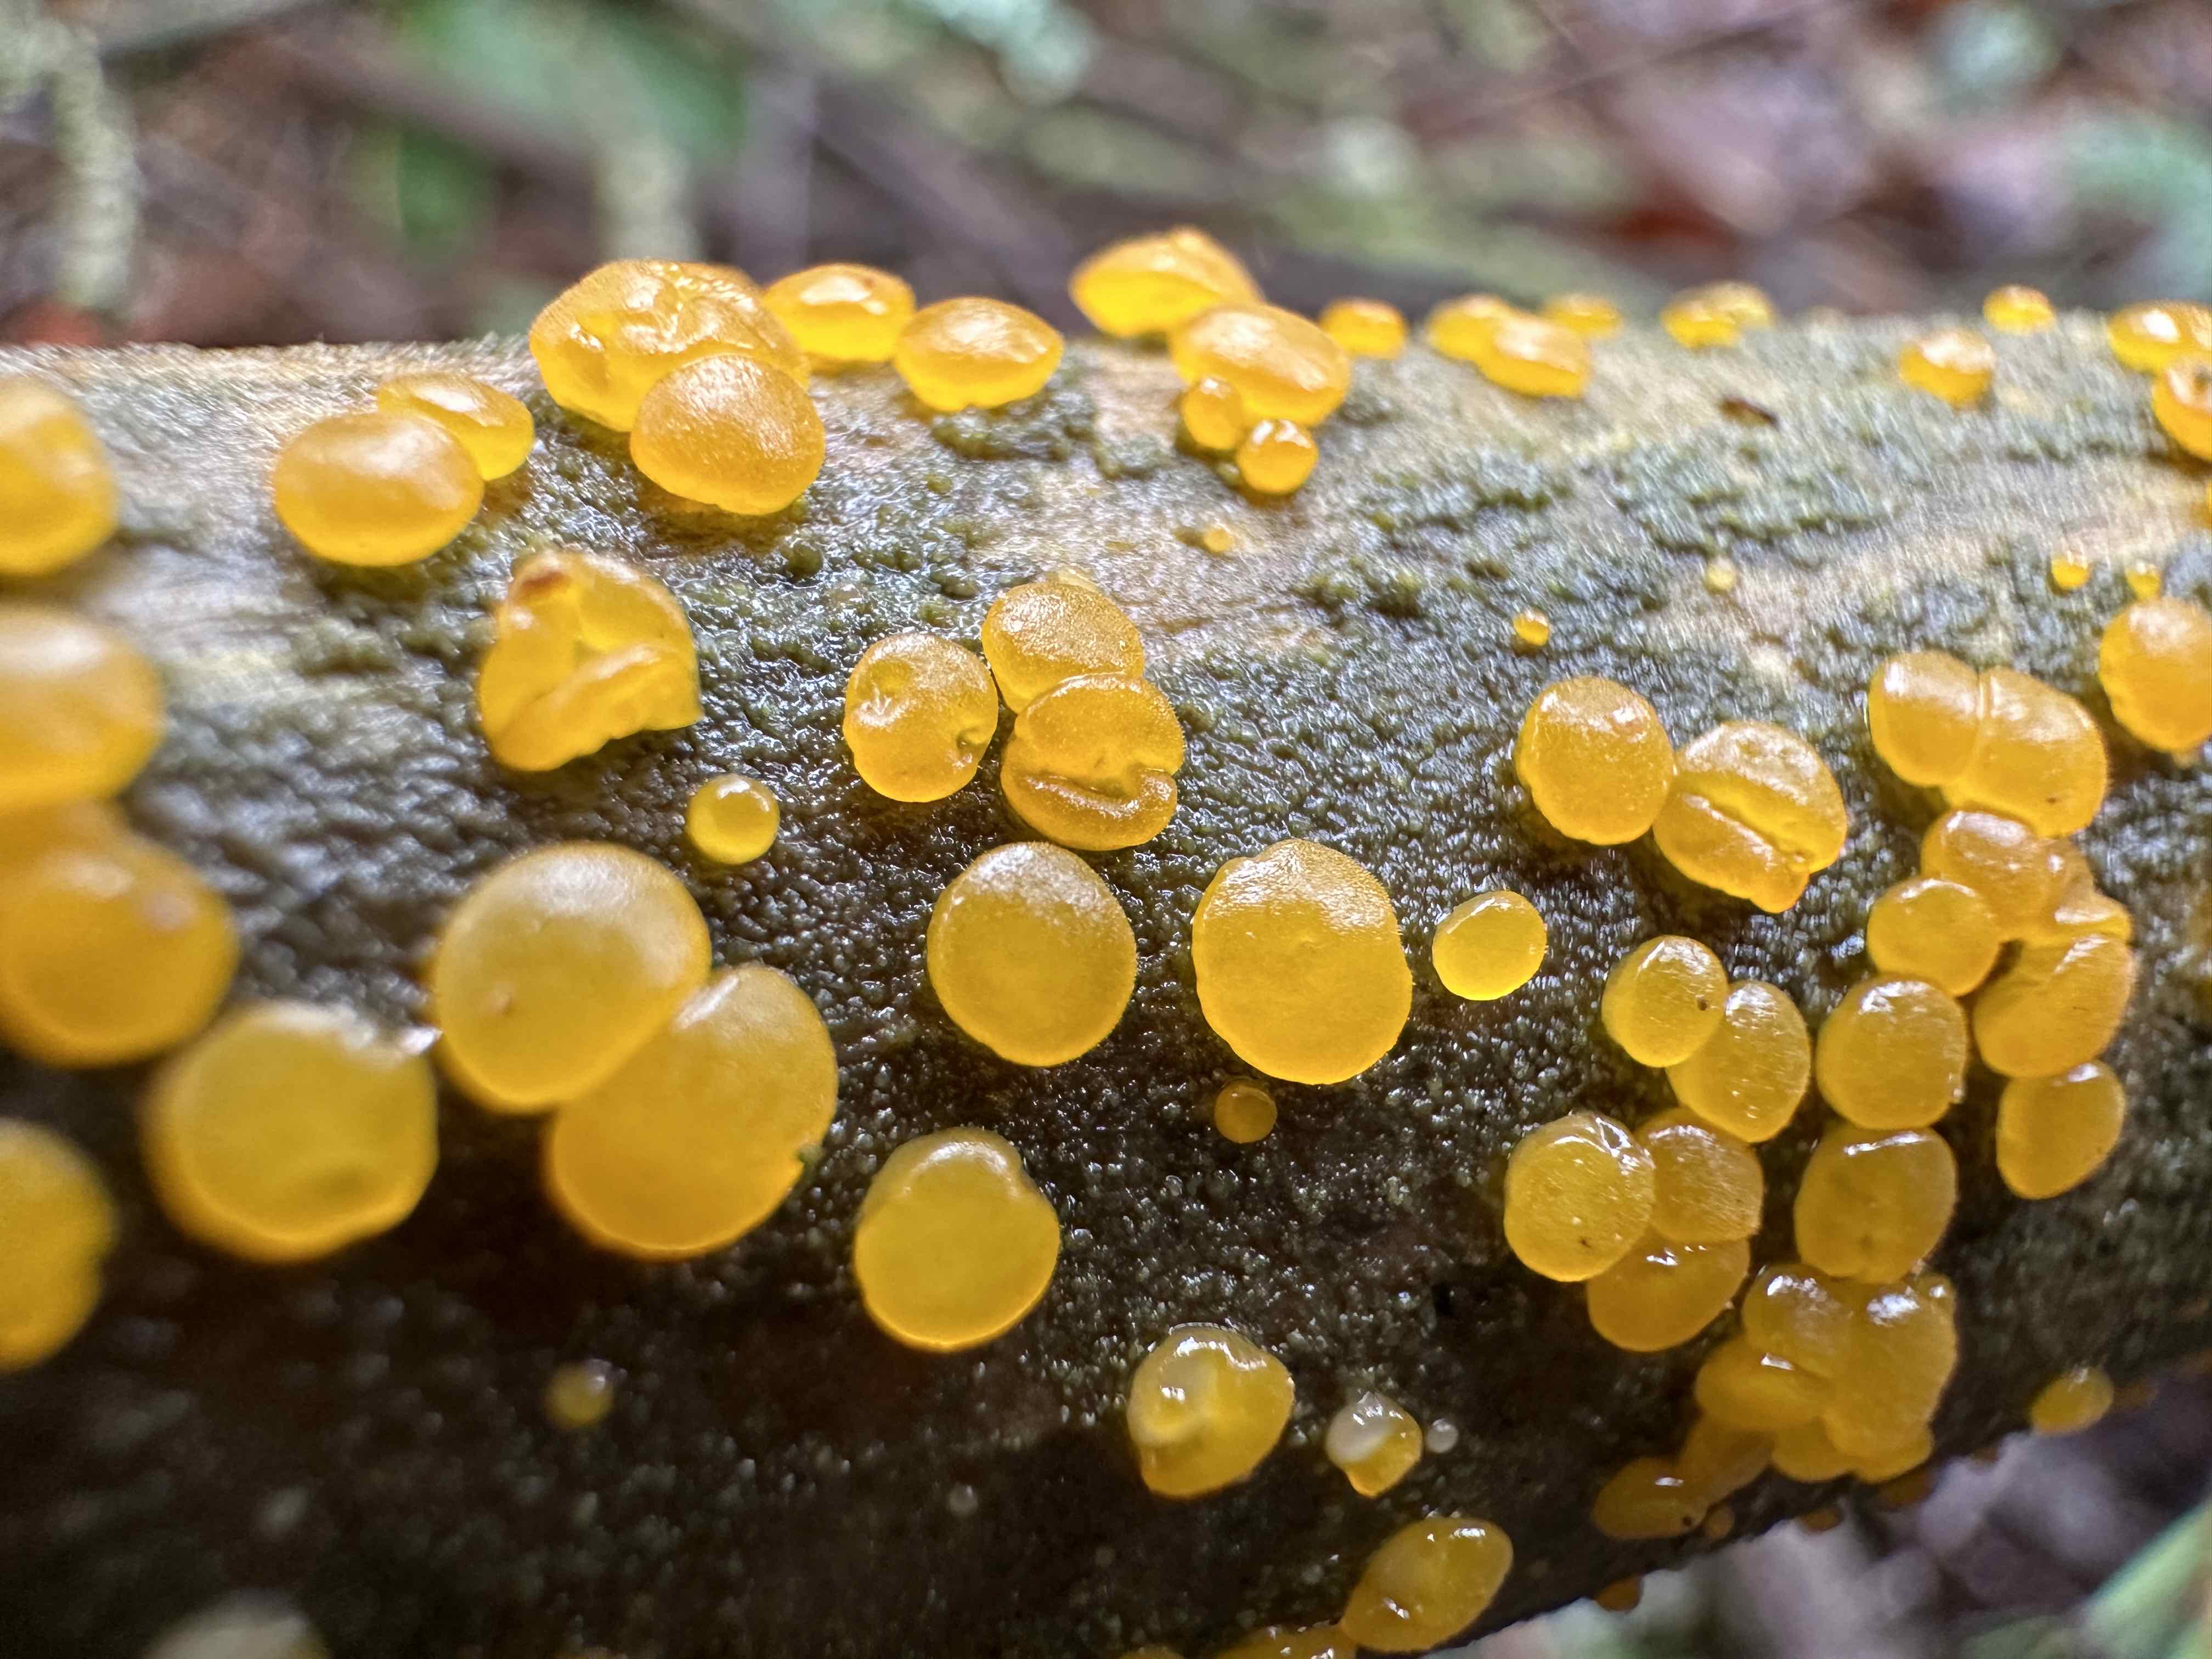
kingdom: Fungi
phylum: Basidiomycota
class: Dacrymycetes
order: Dacrymycetales
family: Dacrymycetaceae
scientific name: Dacrymycetaceae
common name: tåresvampfamilien
